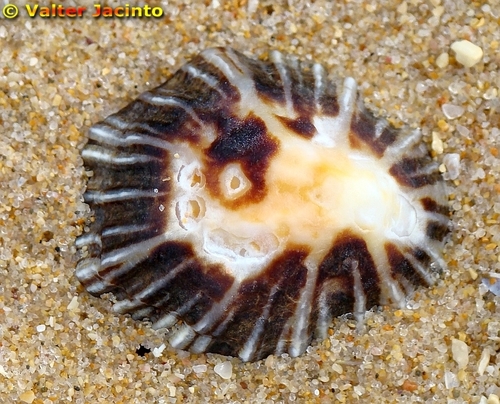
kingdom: Animalia
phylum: Mollusca
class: Gastropoda
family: Patellidae
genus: Patella
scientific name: Patella depressa
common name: Black-footed limpet
